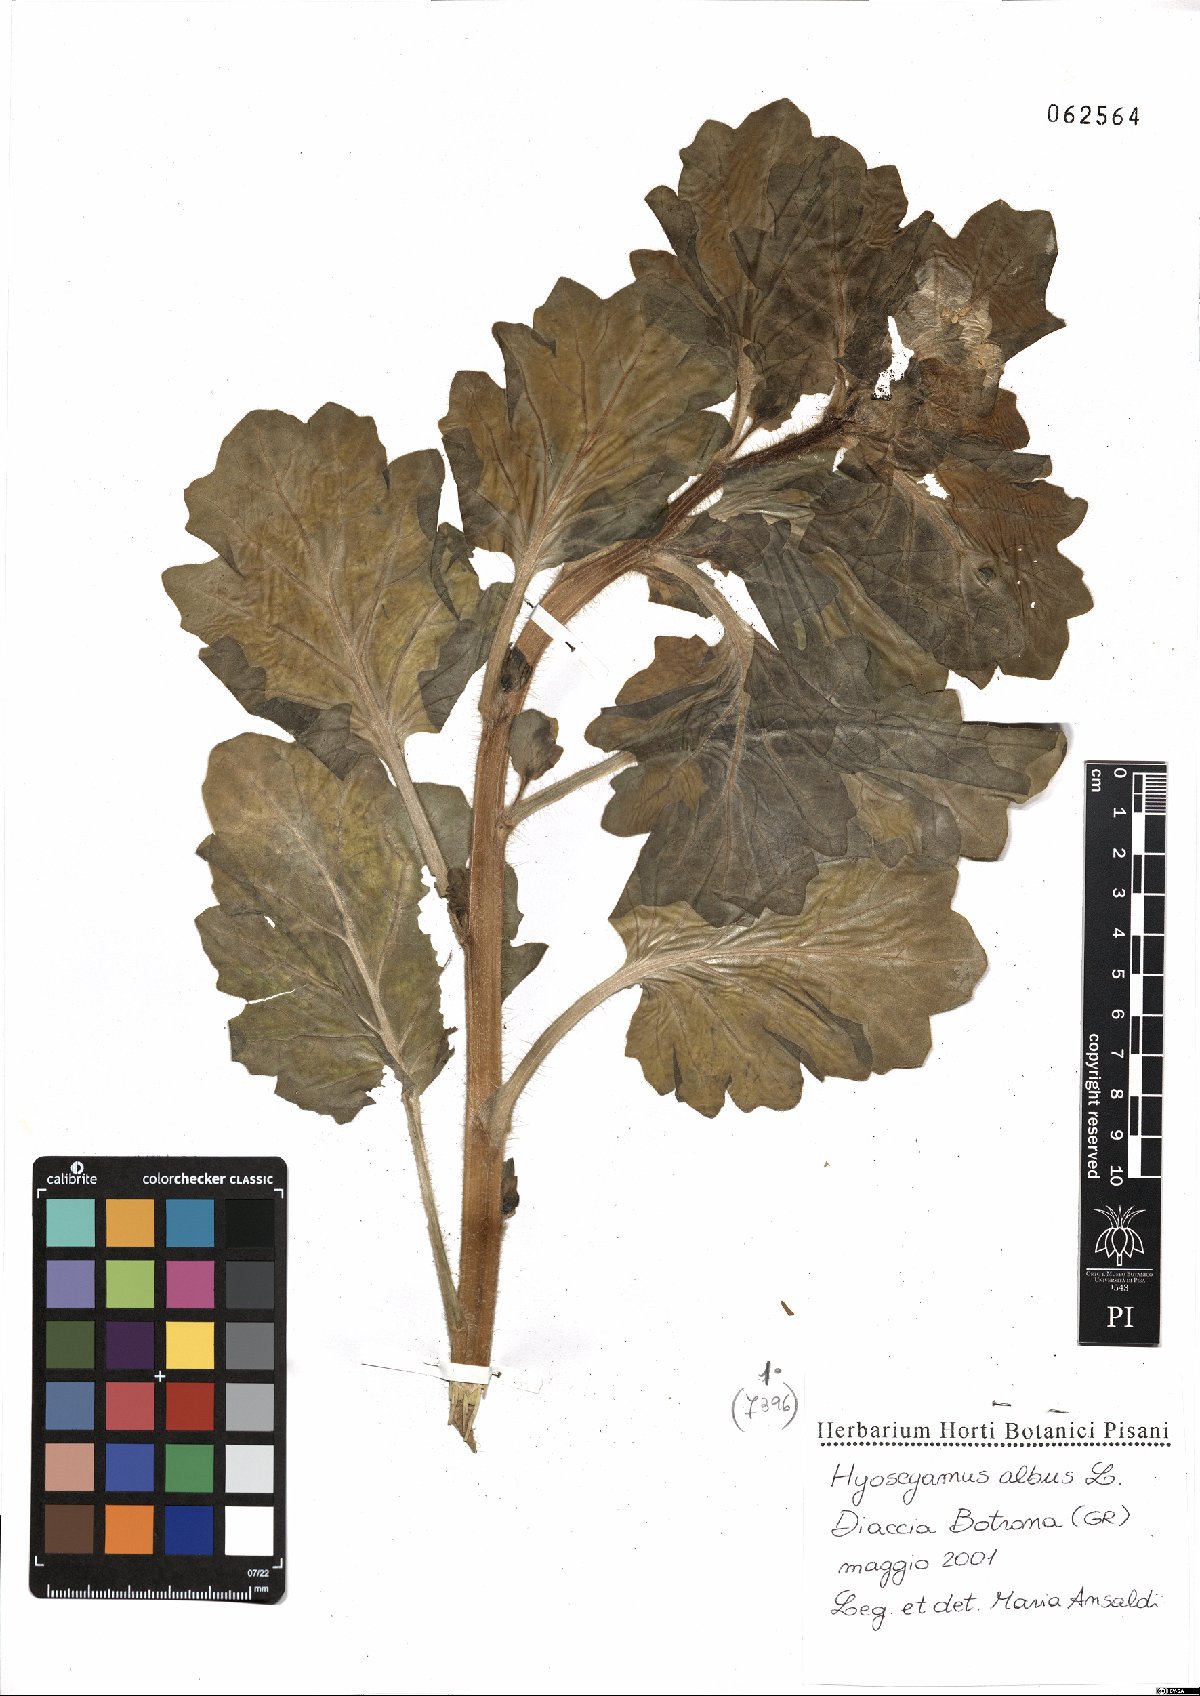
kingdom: Plantae
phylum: Tracheophyta
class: Magnoliopsida
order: Solanales
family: Solanaceae
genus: Hyoscyamus
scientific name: Hyoscyamus albus
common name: White henbane
